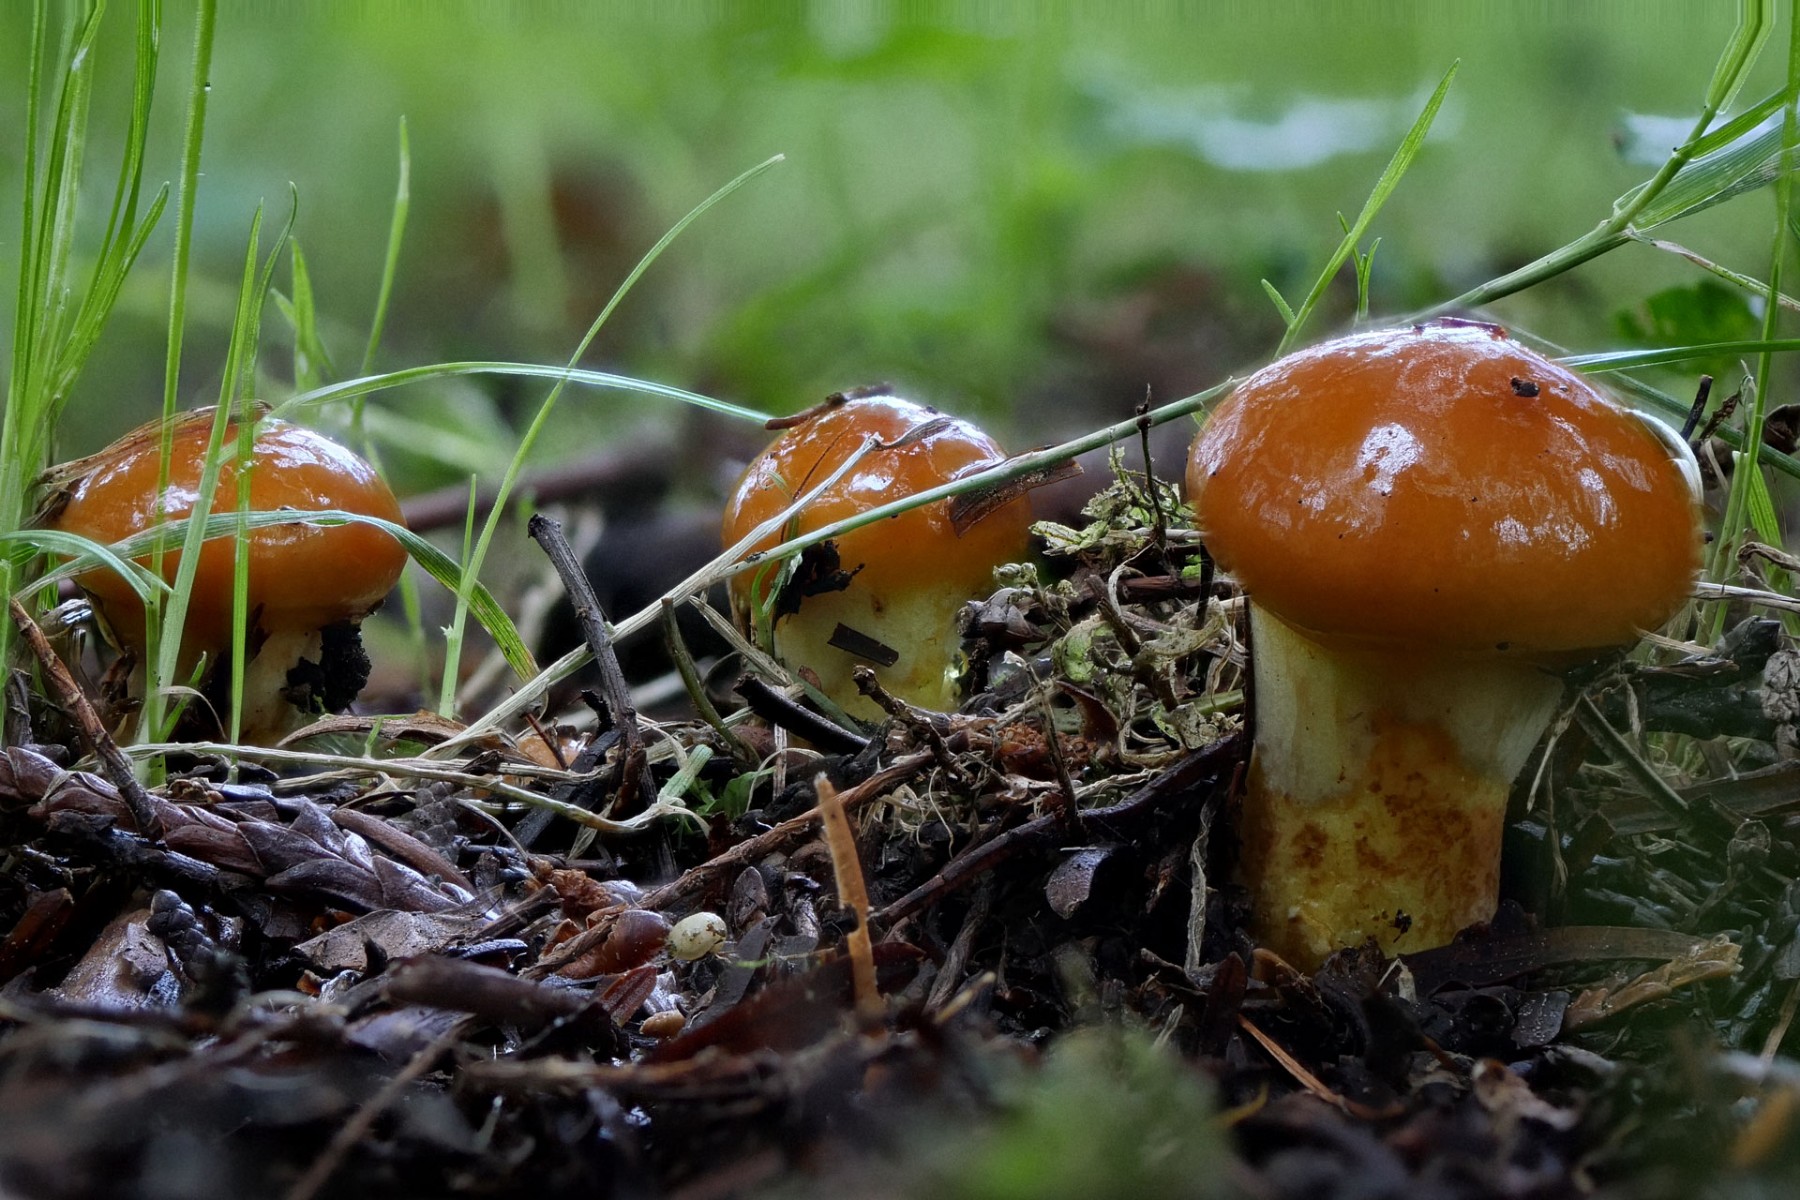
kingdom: Fungi
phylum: Basidiomycota
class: Agaricomycetes
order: Boletales
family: Suillaceae
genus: Suillus
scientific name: Suillus grevillei
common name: lærke-slimrørhat
